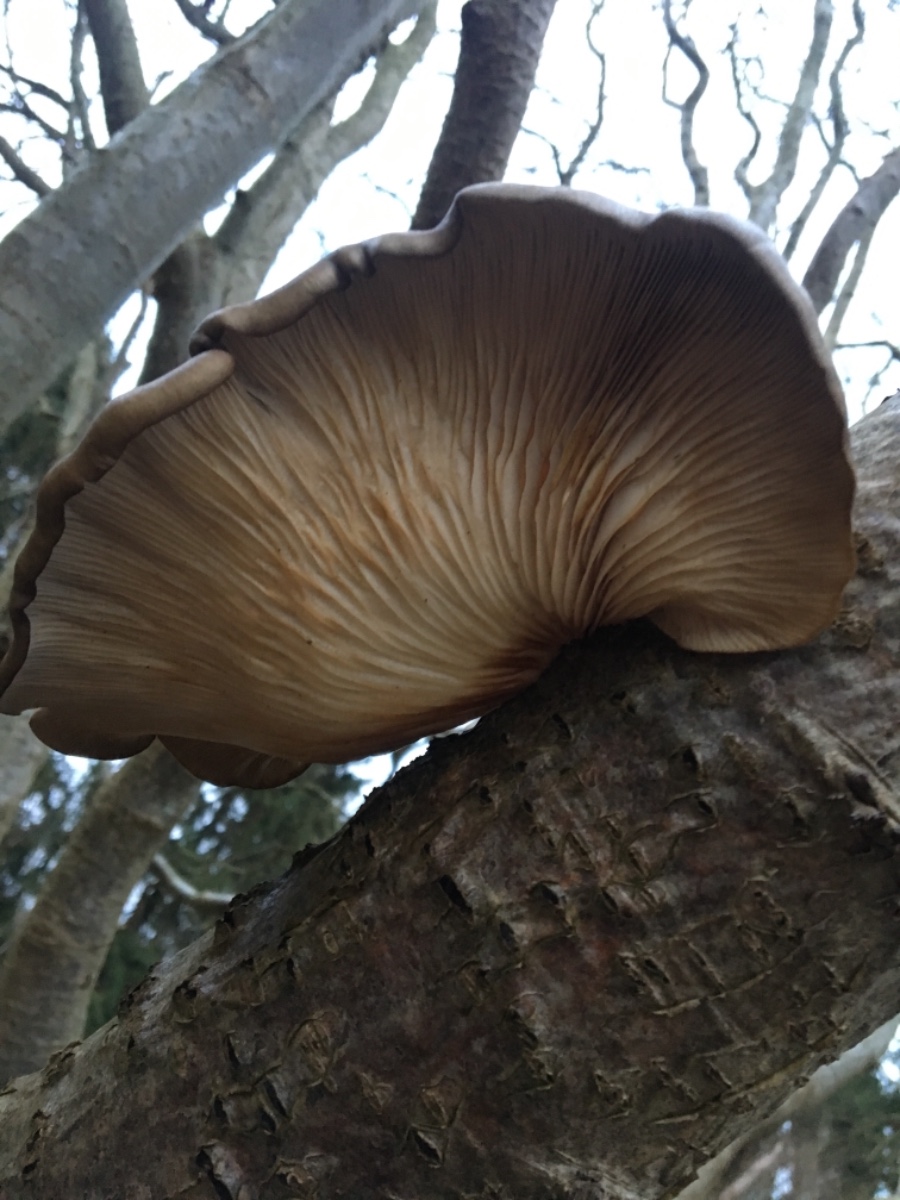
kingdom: Fungi
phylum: Basidiomycota
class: Agaricomycetes
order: Agaricales
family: Pleurotaceae
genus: Pleurotus
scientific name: Pleurotus ostreatus
